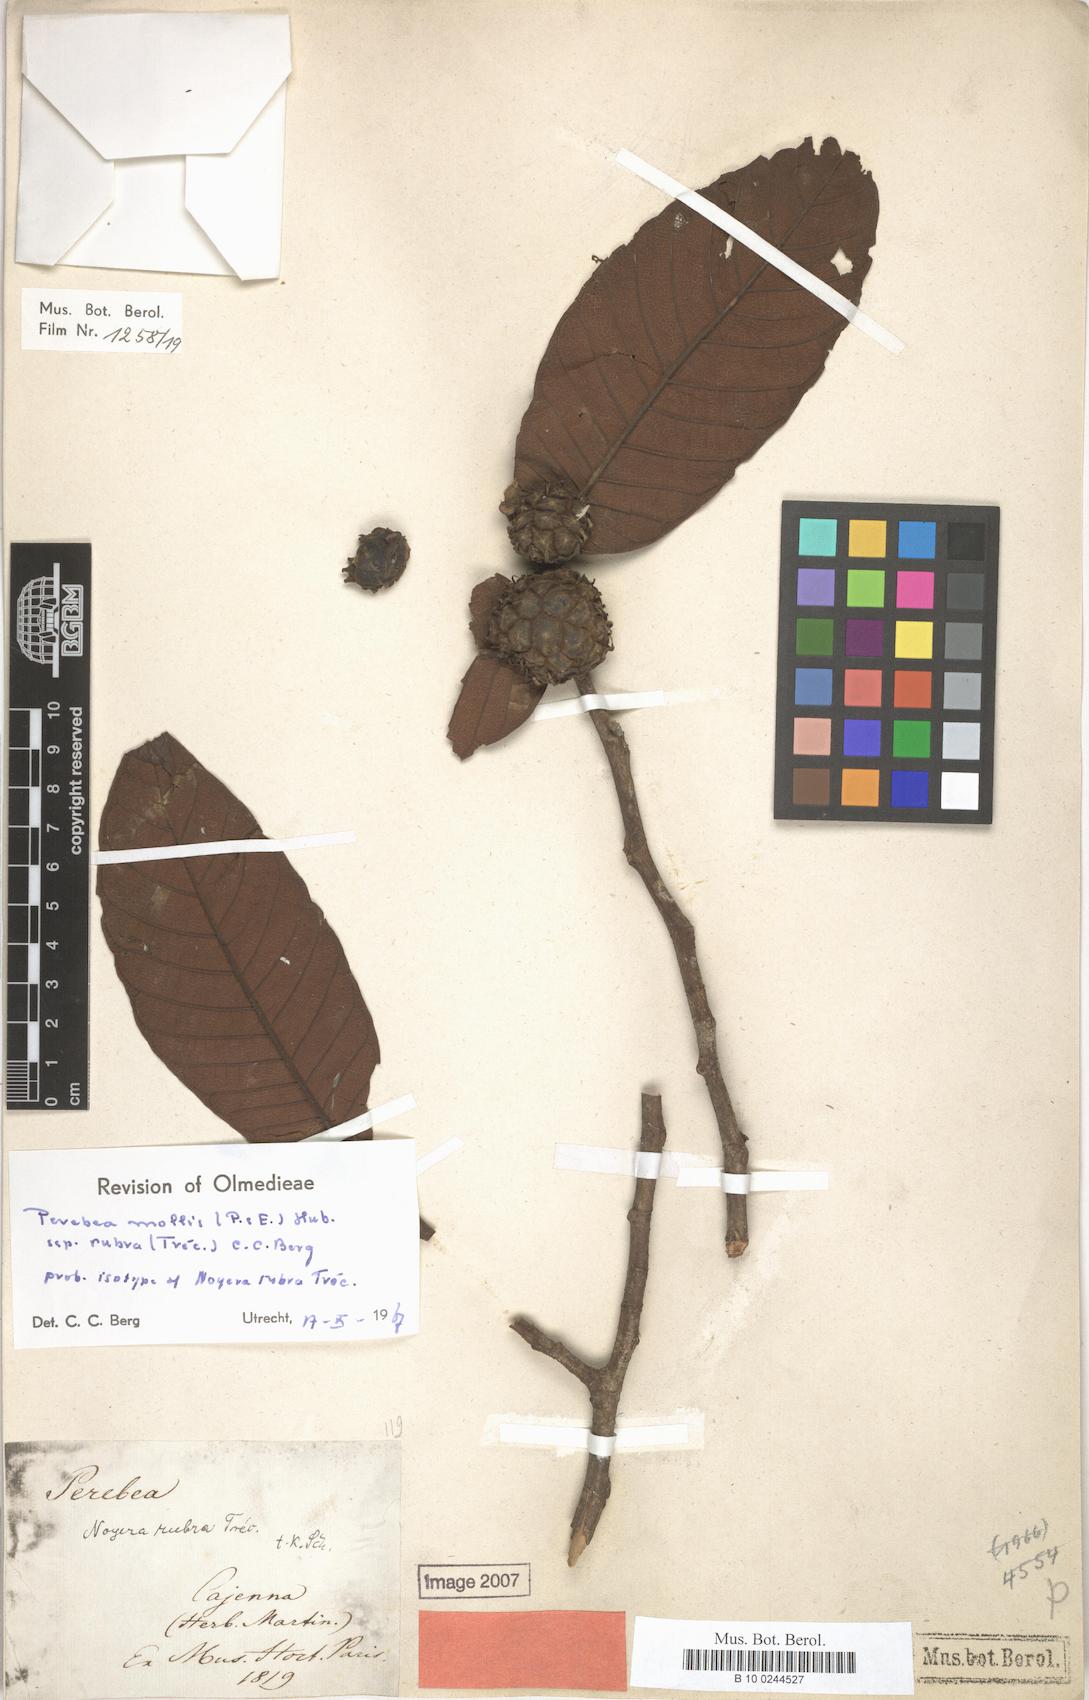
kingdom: Plantae
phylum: Tracheophyta
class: Magnoliopsida
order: Rosales
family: Moraceae
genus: Perebea
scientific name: Perebea rubra
